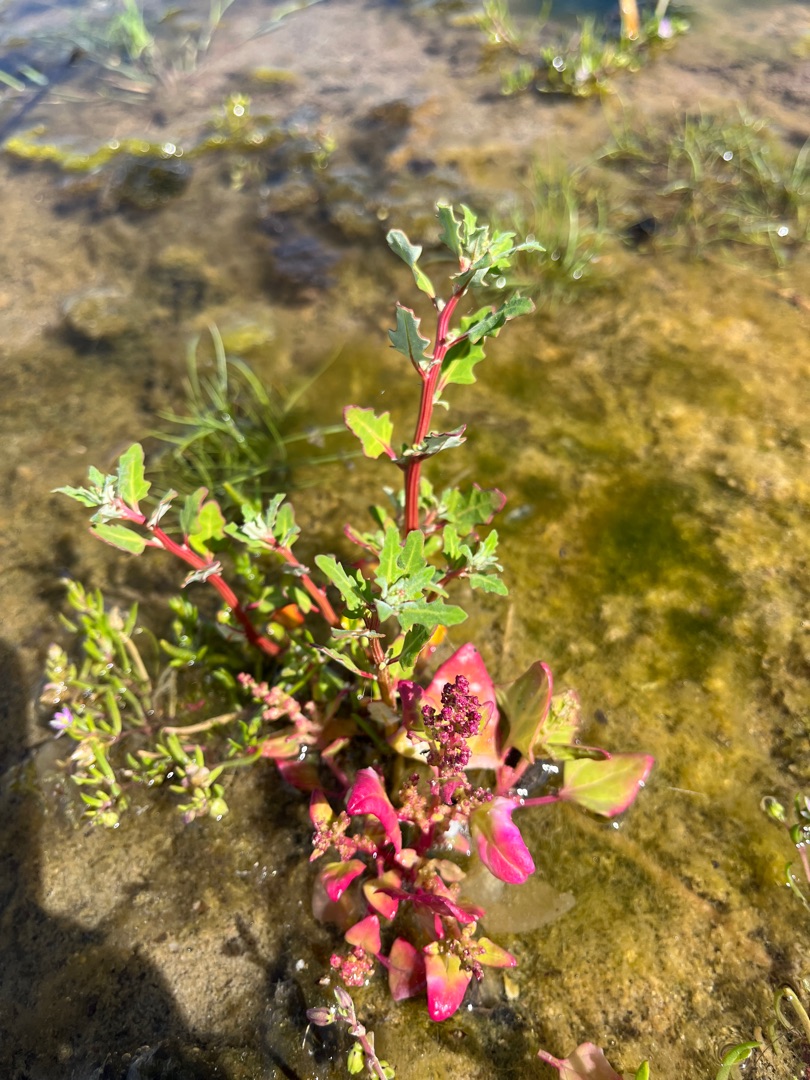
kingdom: Plantae
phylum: Tracheophyta
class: Magnoliopsida
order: Caryophyllales
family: Amaranthaceae
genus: Oxybasis
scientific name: Oxybasis glauca
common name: Blågrøn gåsefod
